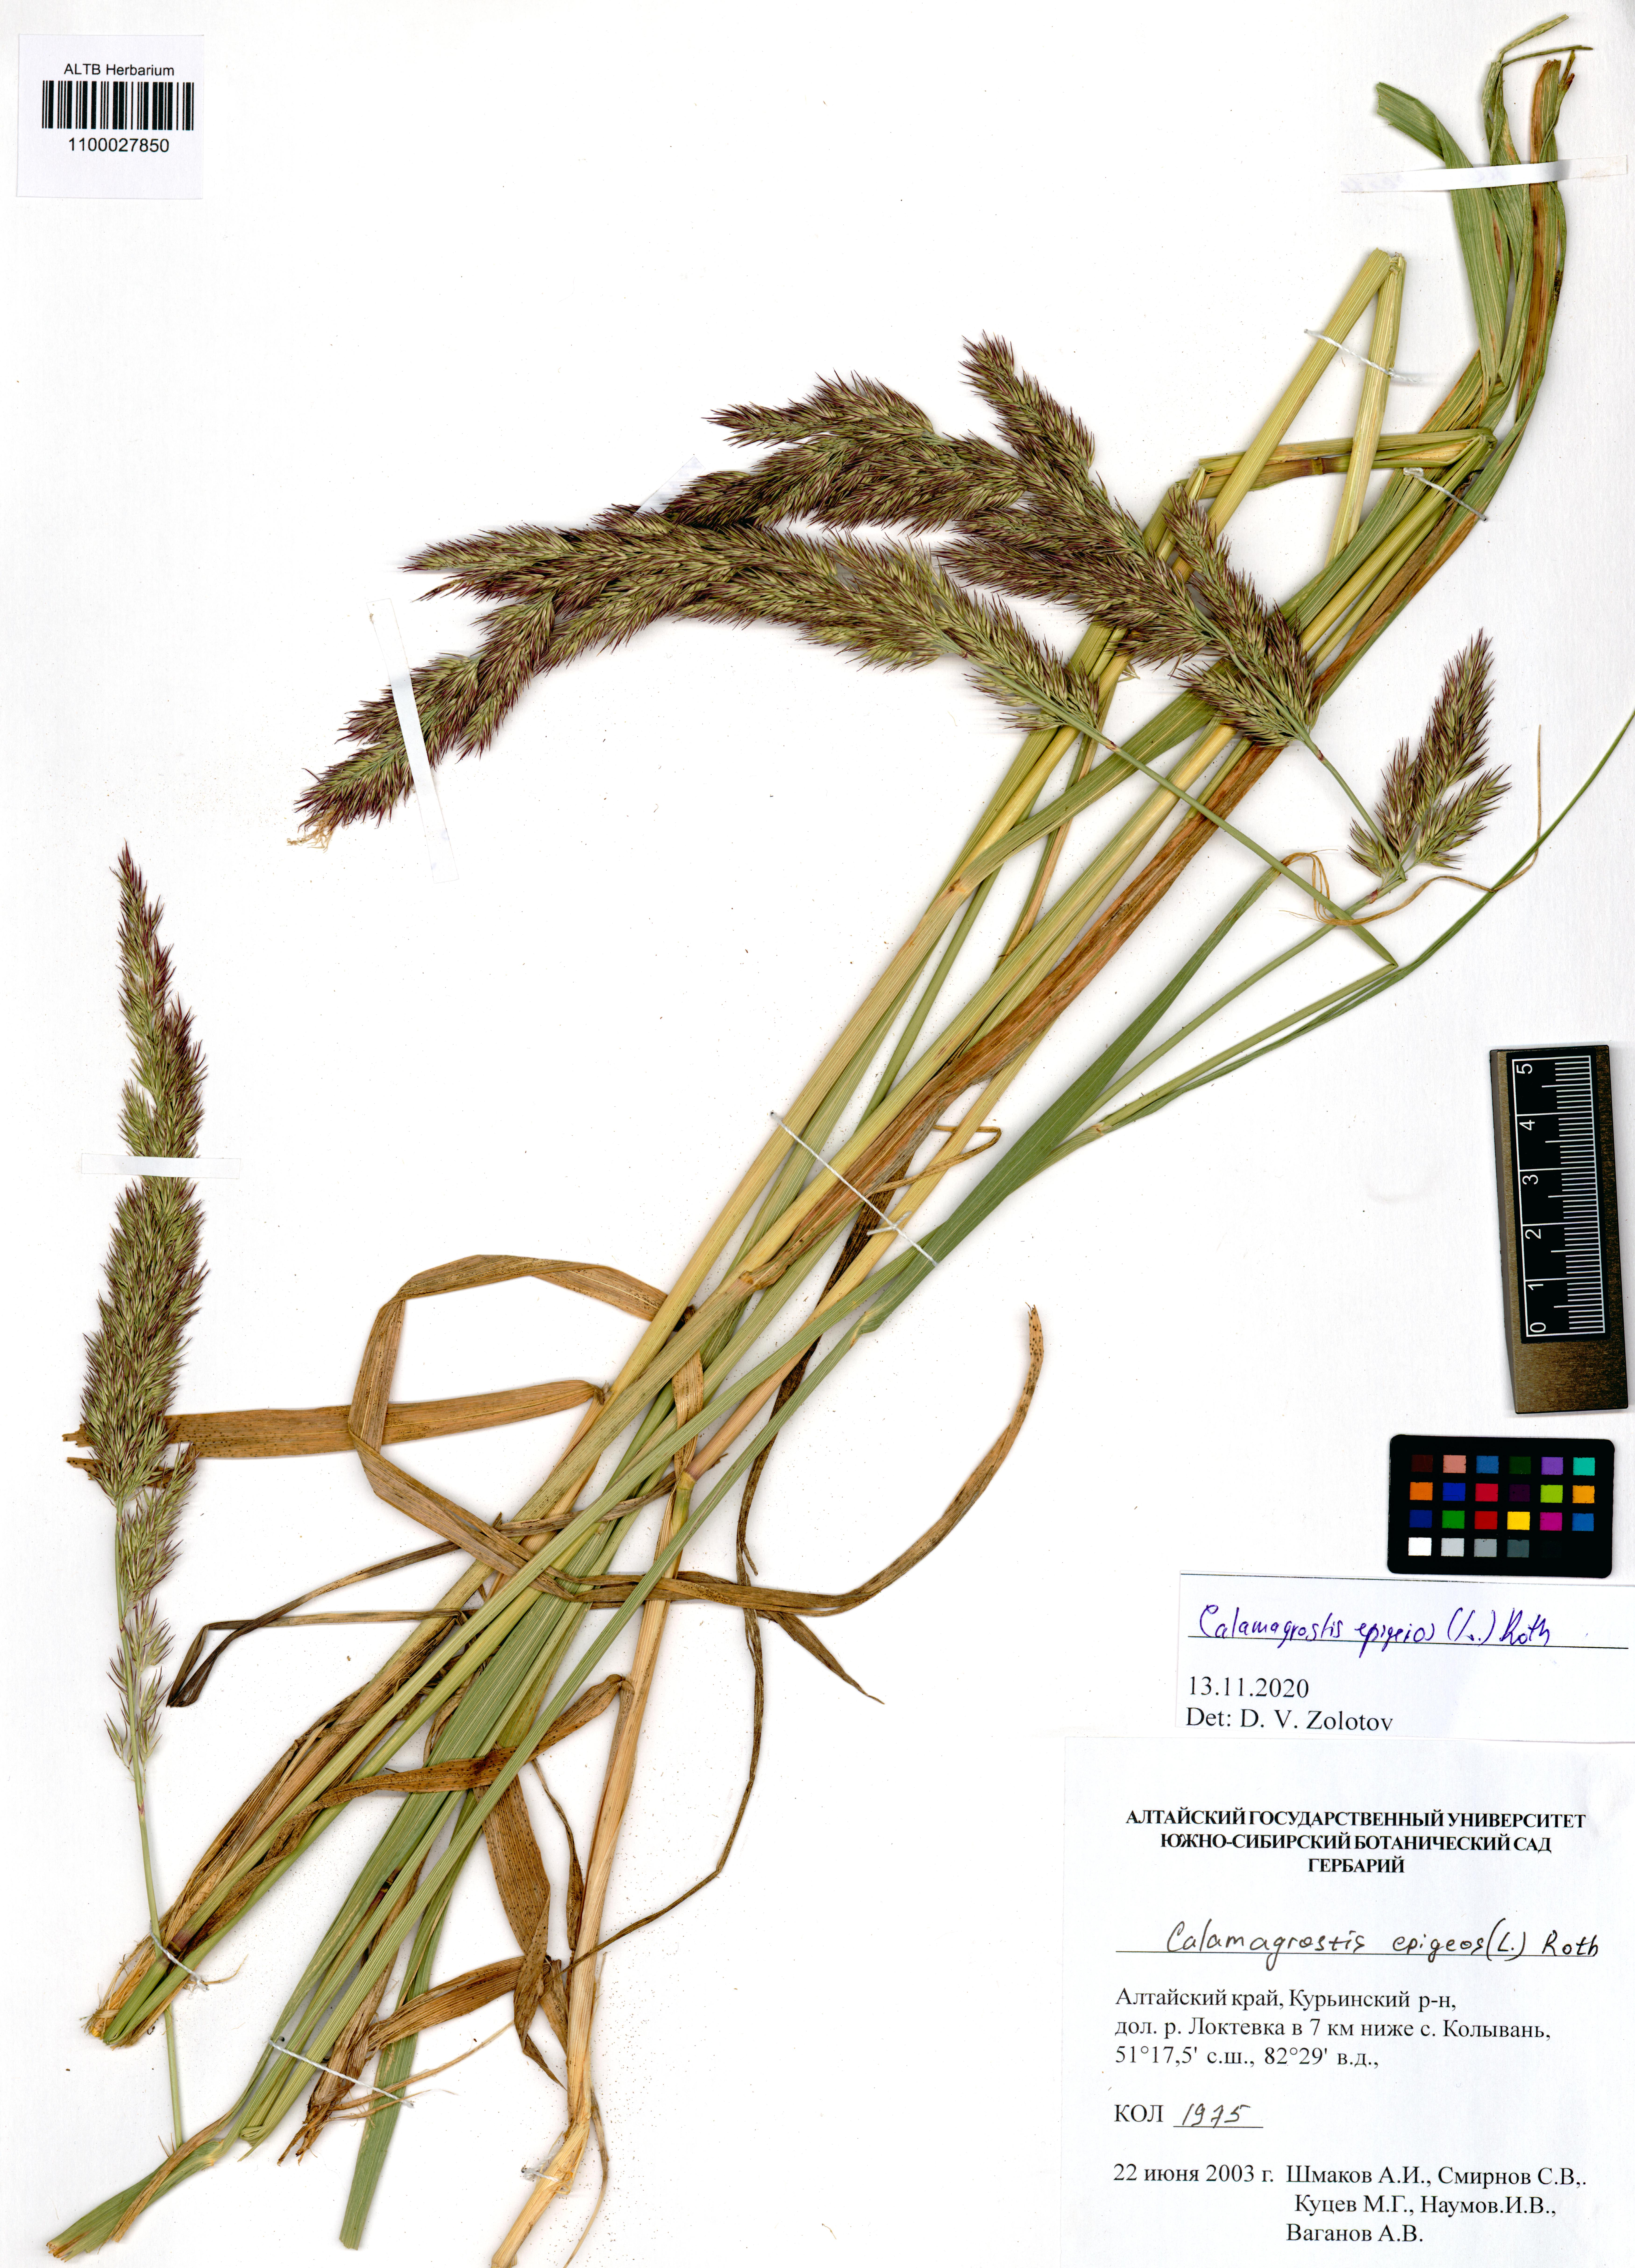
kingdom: Plantae
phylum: Tracheophyta
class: Liliopsida
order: Poales
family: Poaceae
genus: Calamagrostis
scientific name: Calamagrostis epigejos
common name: Wood small-reed
